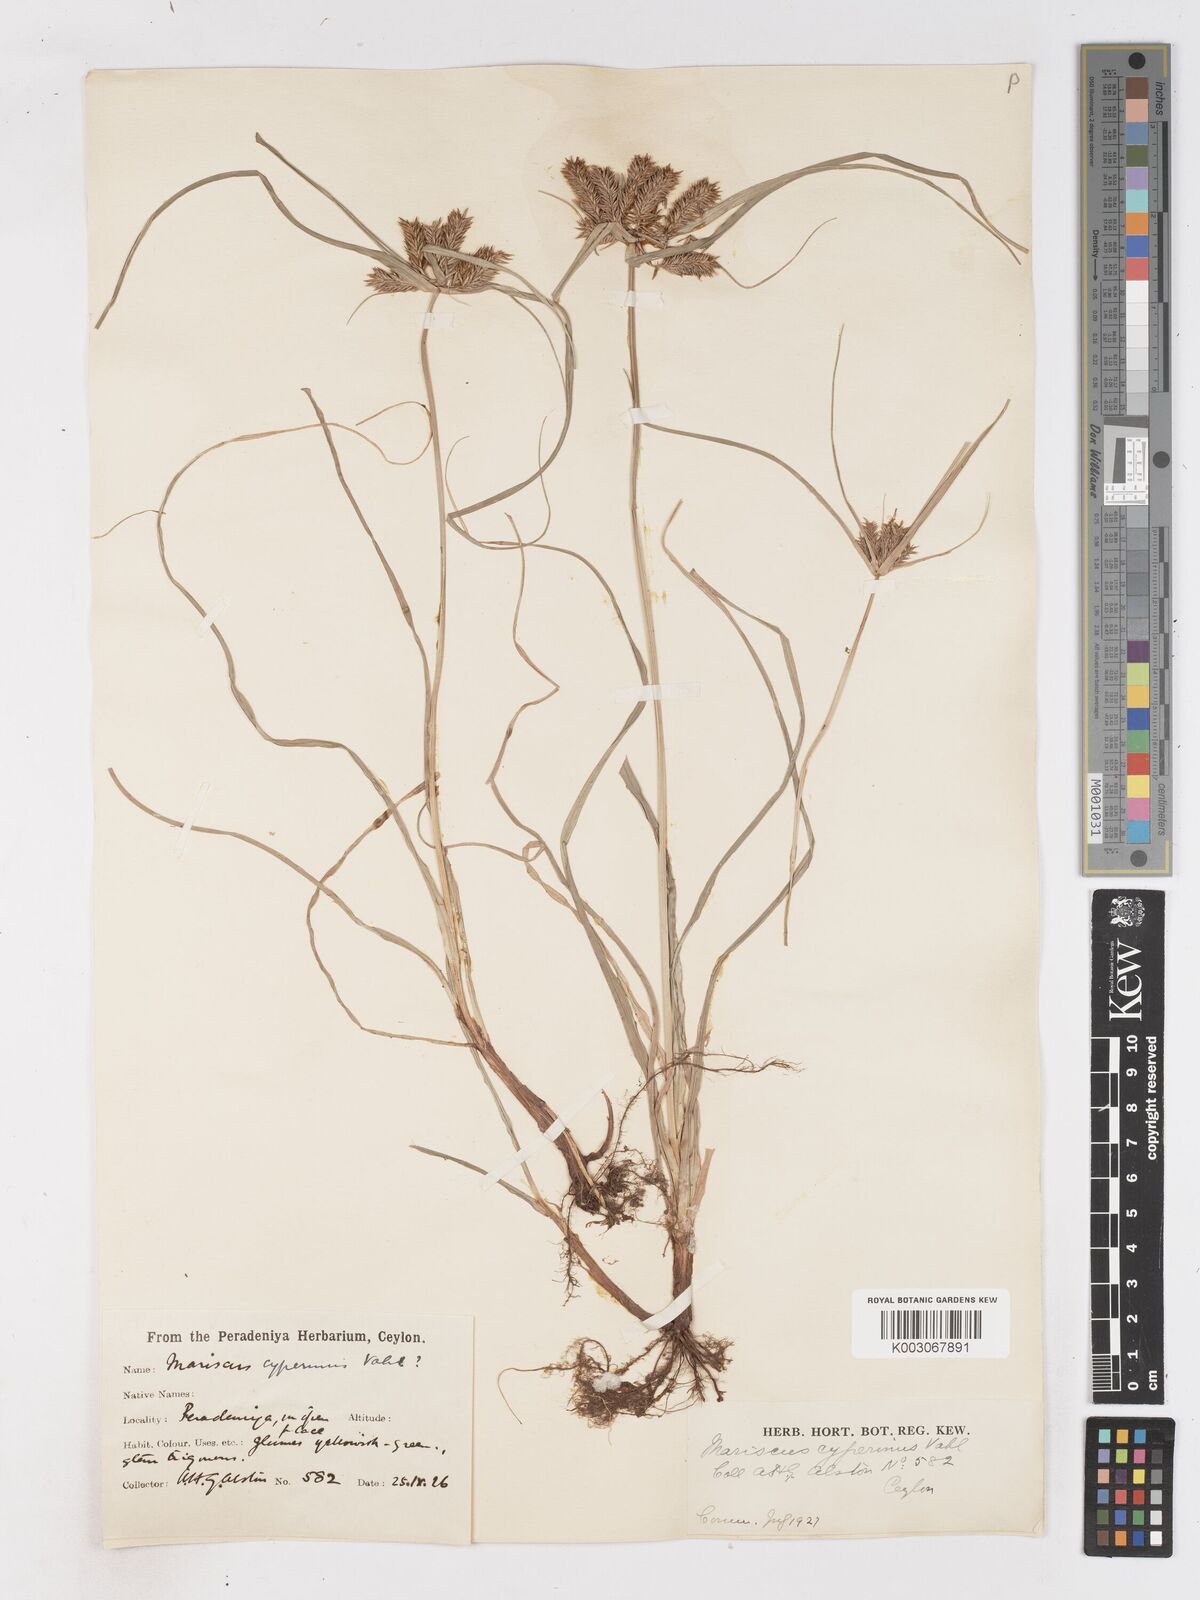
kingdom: Plantae
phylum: Tracheophyta
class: Liliopsida
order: Poales
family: Cyperaceae
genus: Cyperus
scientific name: Cyperus cyperinus
